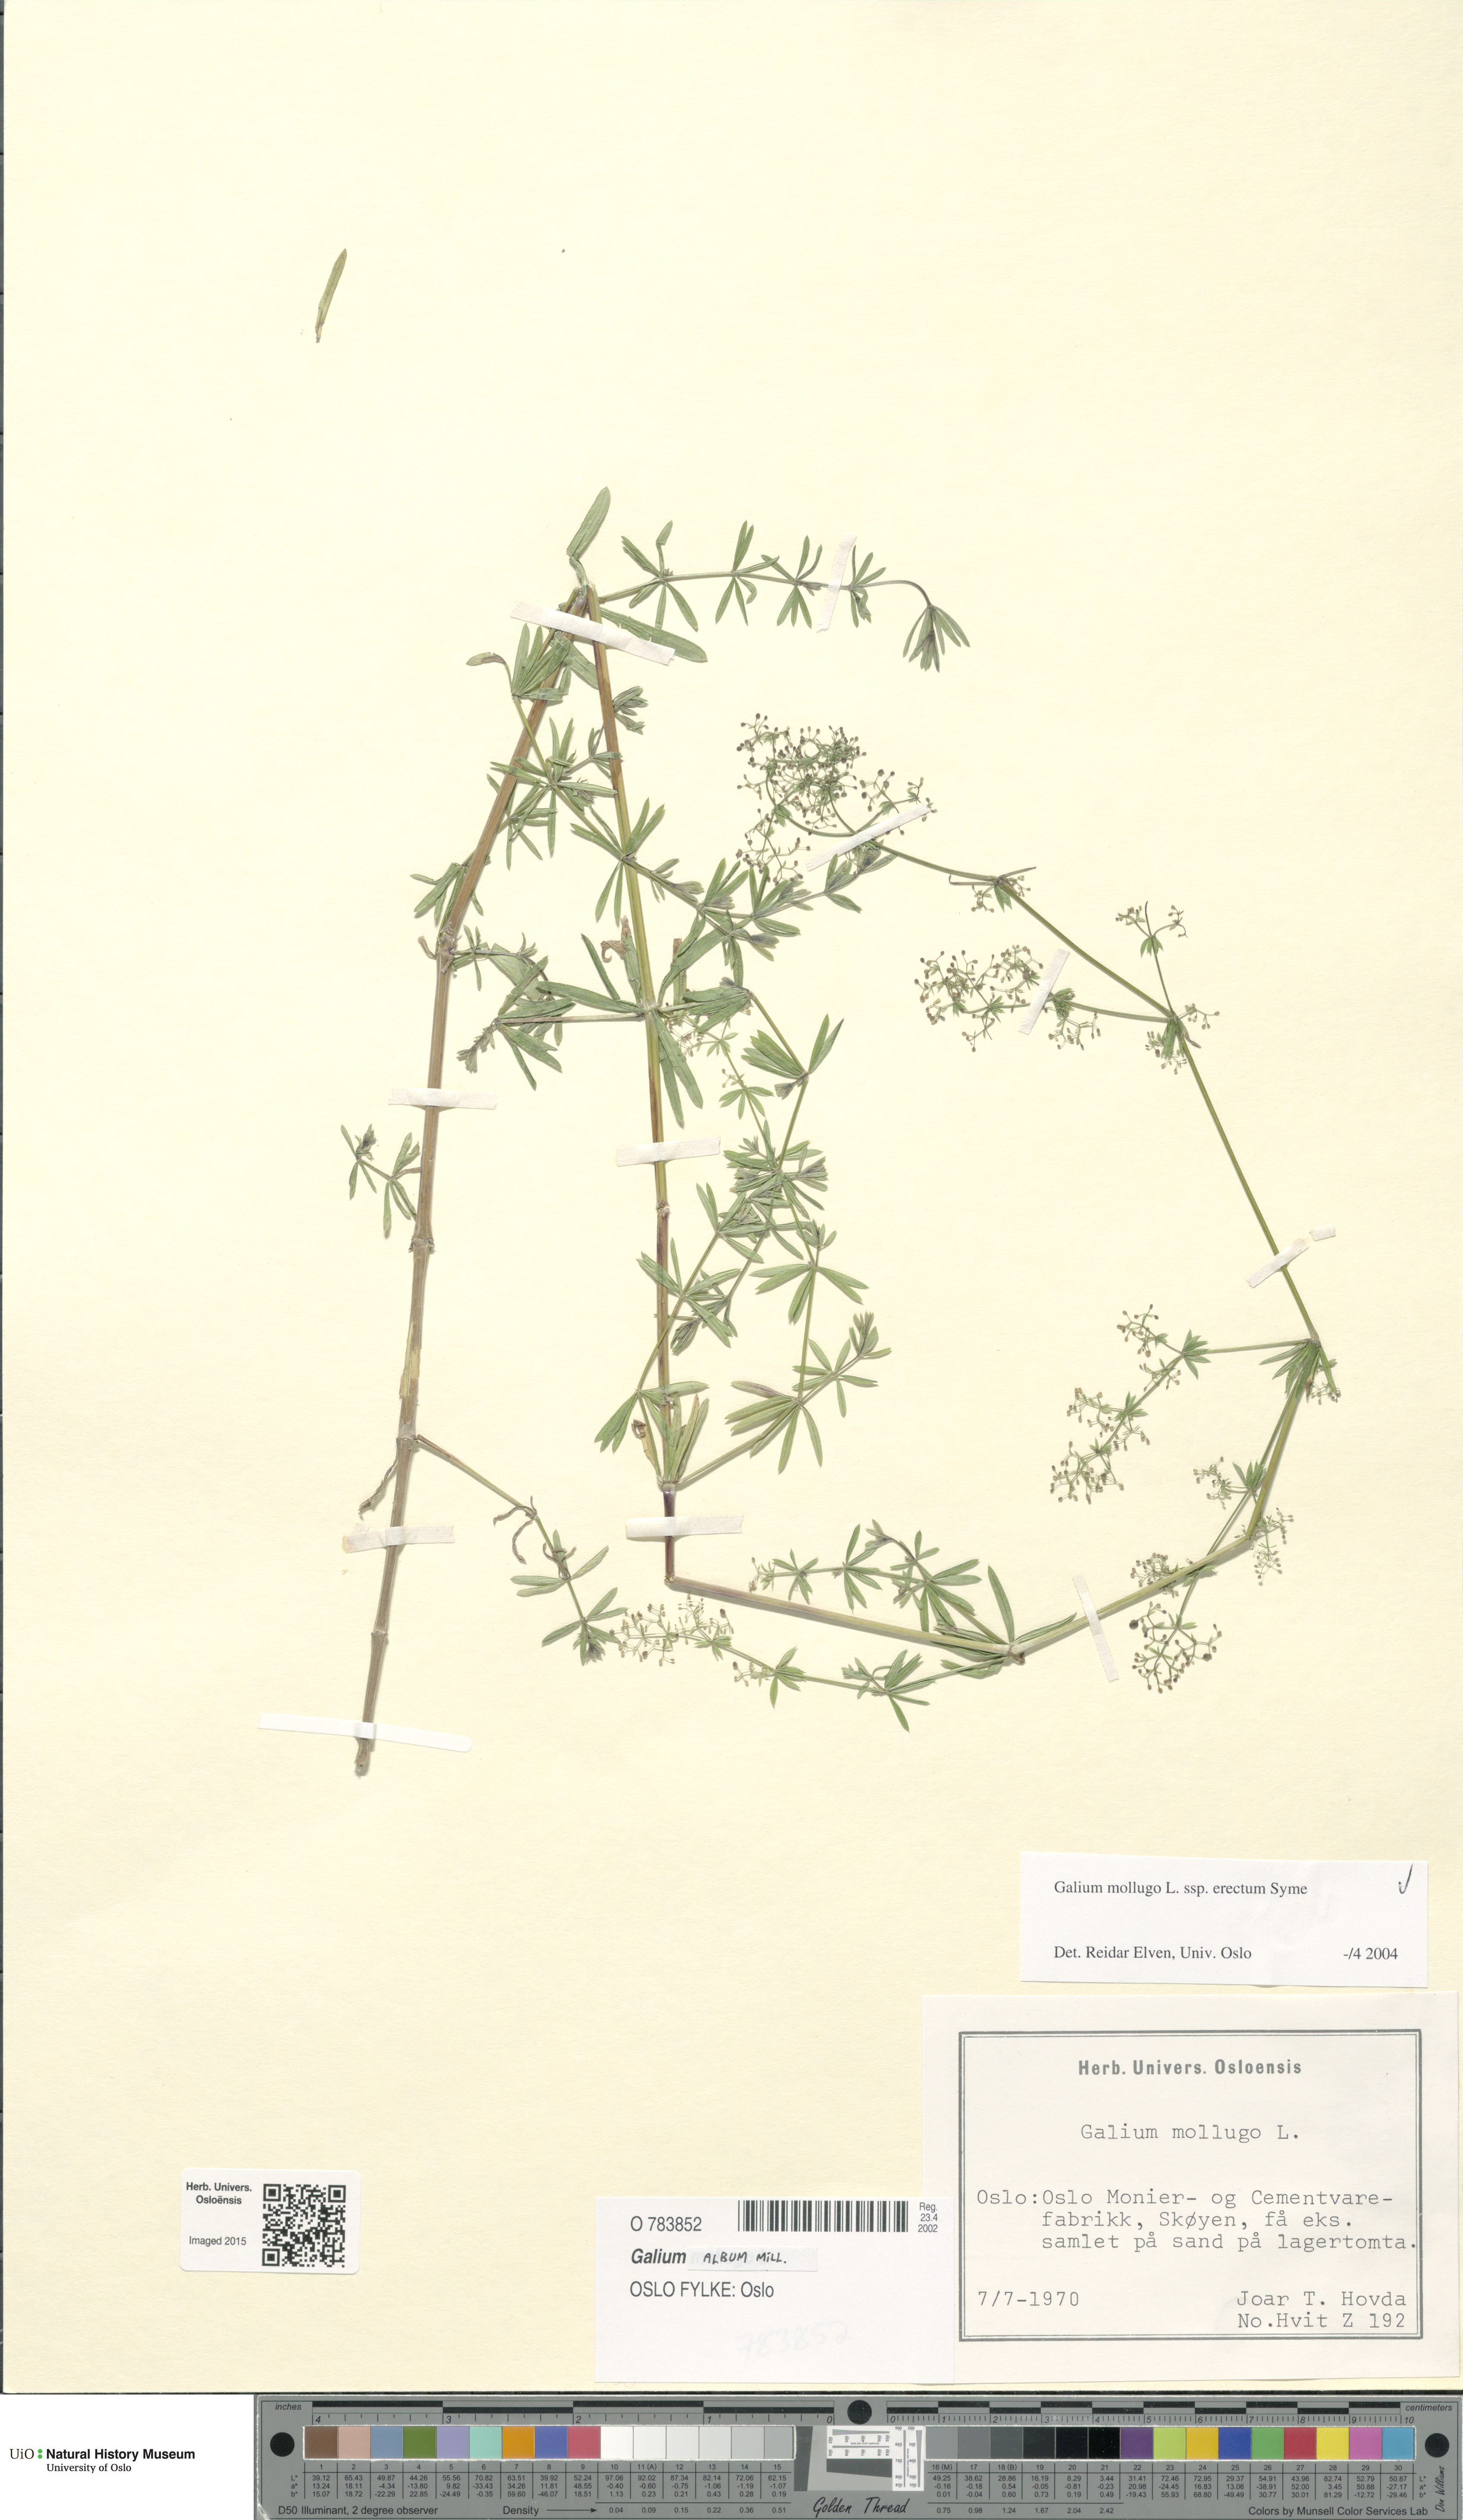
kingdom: Plantae
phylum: Tracheophyta
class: Magnoliopsida
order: Gentianales
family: Rubiaceae
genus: Galium
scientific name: Galium album
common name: White bedstraw
